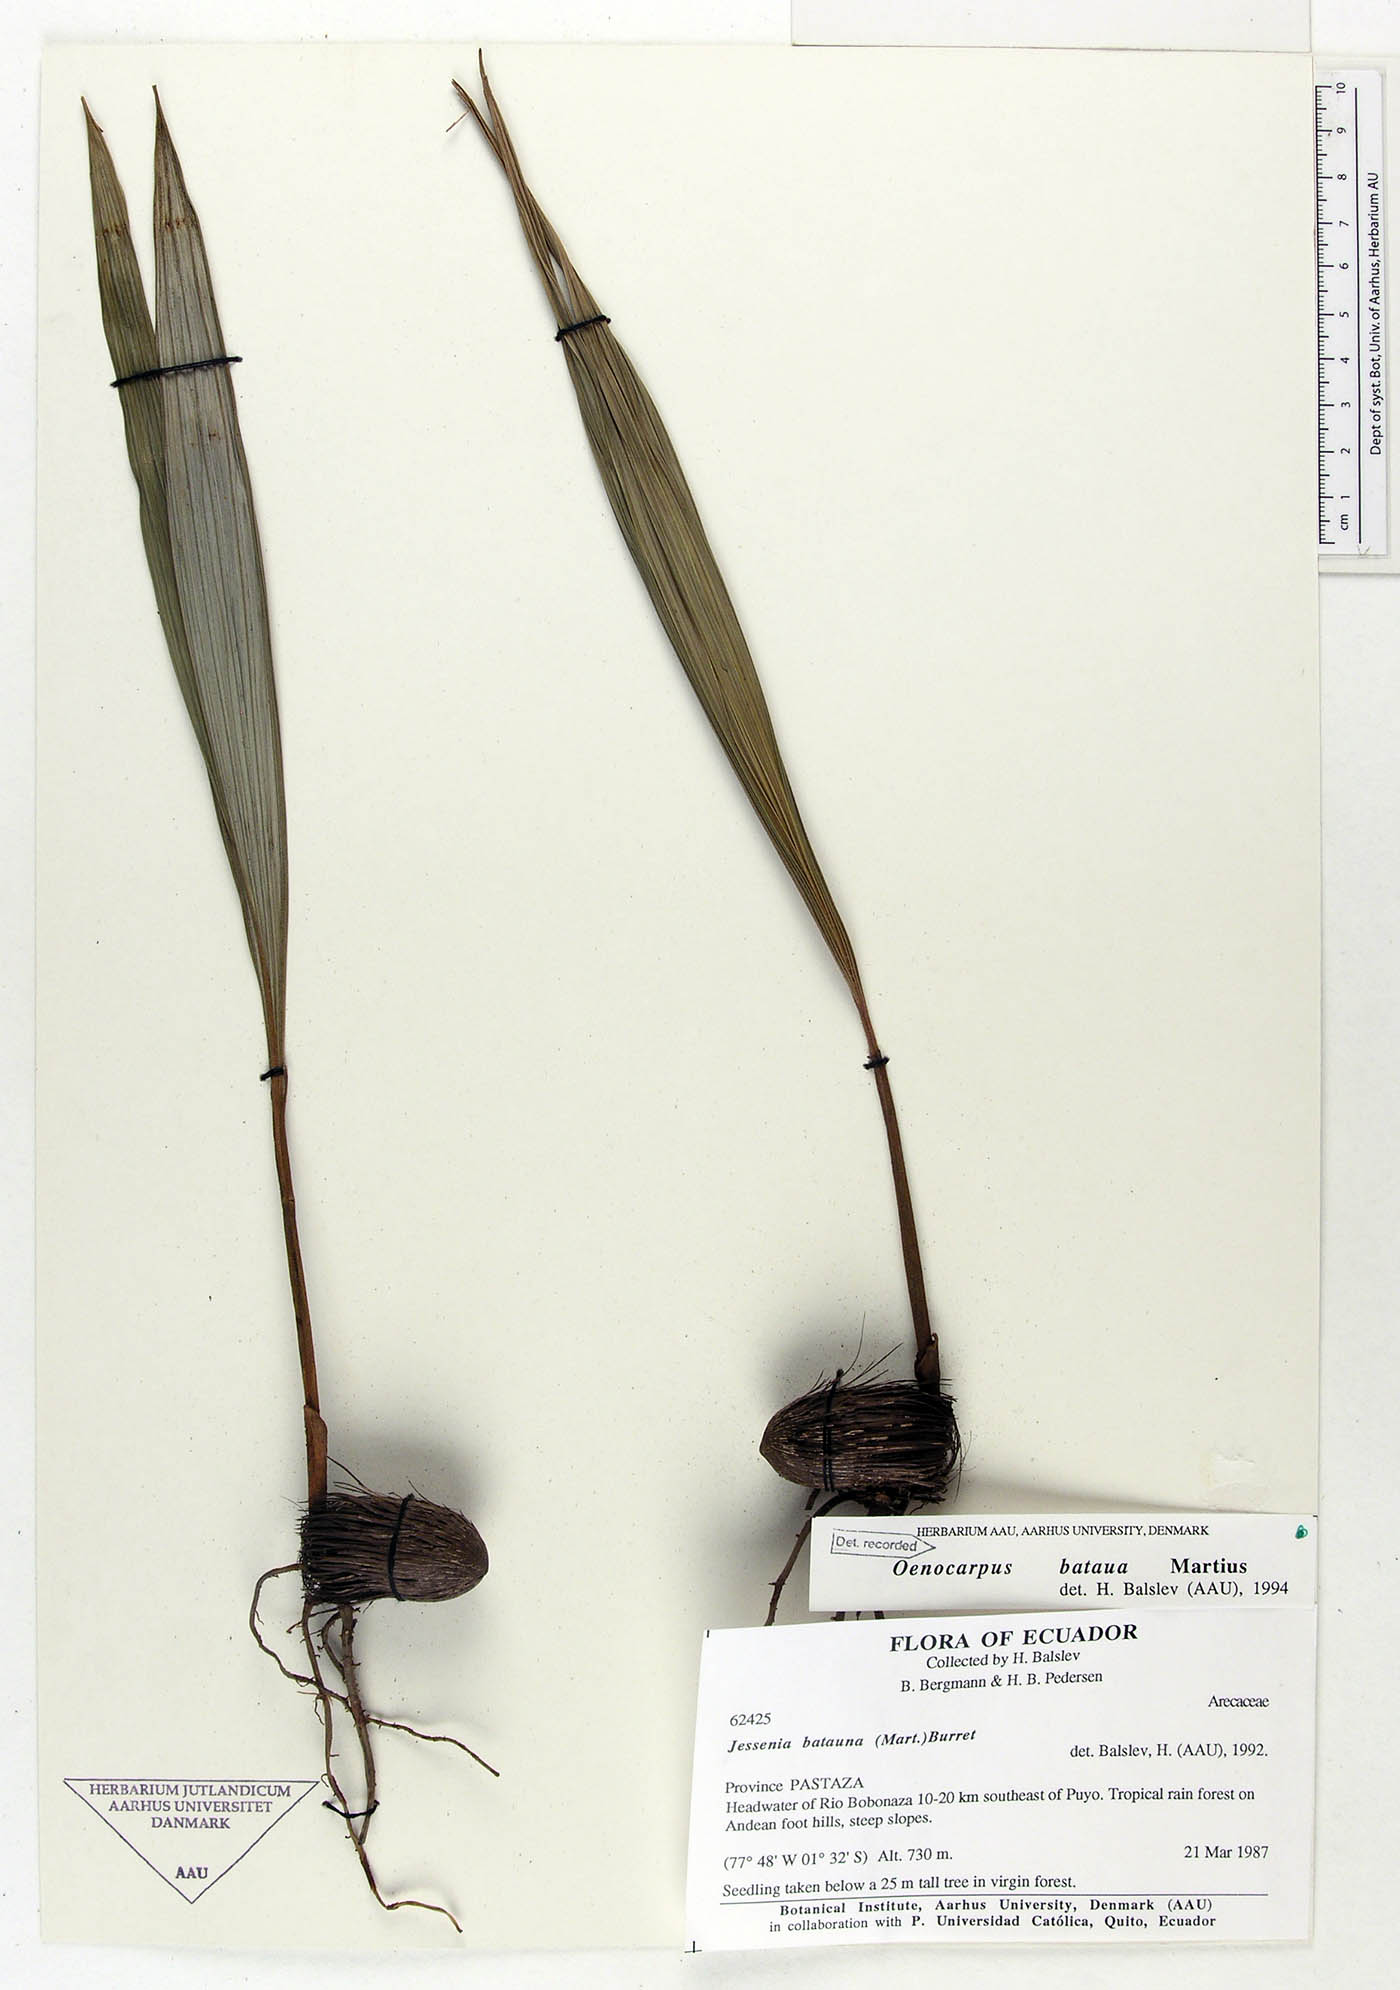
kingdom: Plantae
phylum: Tracheophyta
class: Liliopsida
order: Arecales
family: Arecaceae
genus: Oenocarpus
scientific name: Oenocarpus bataua
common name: Bataua palm
